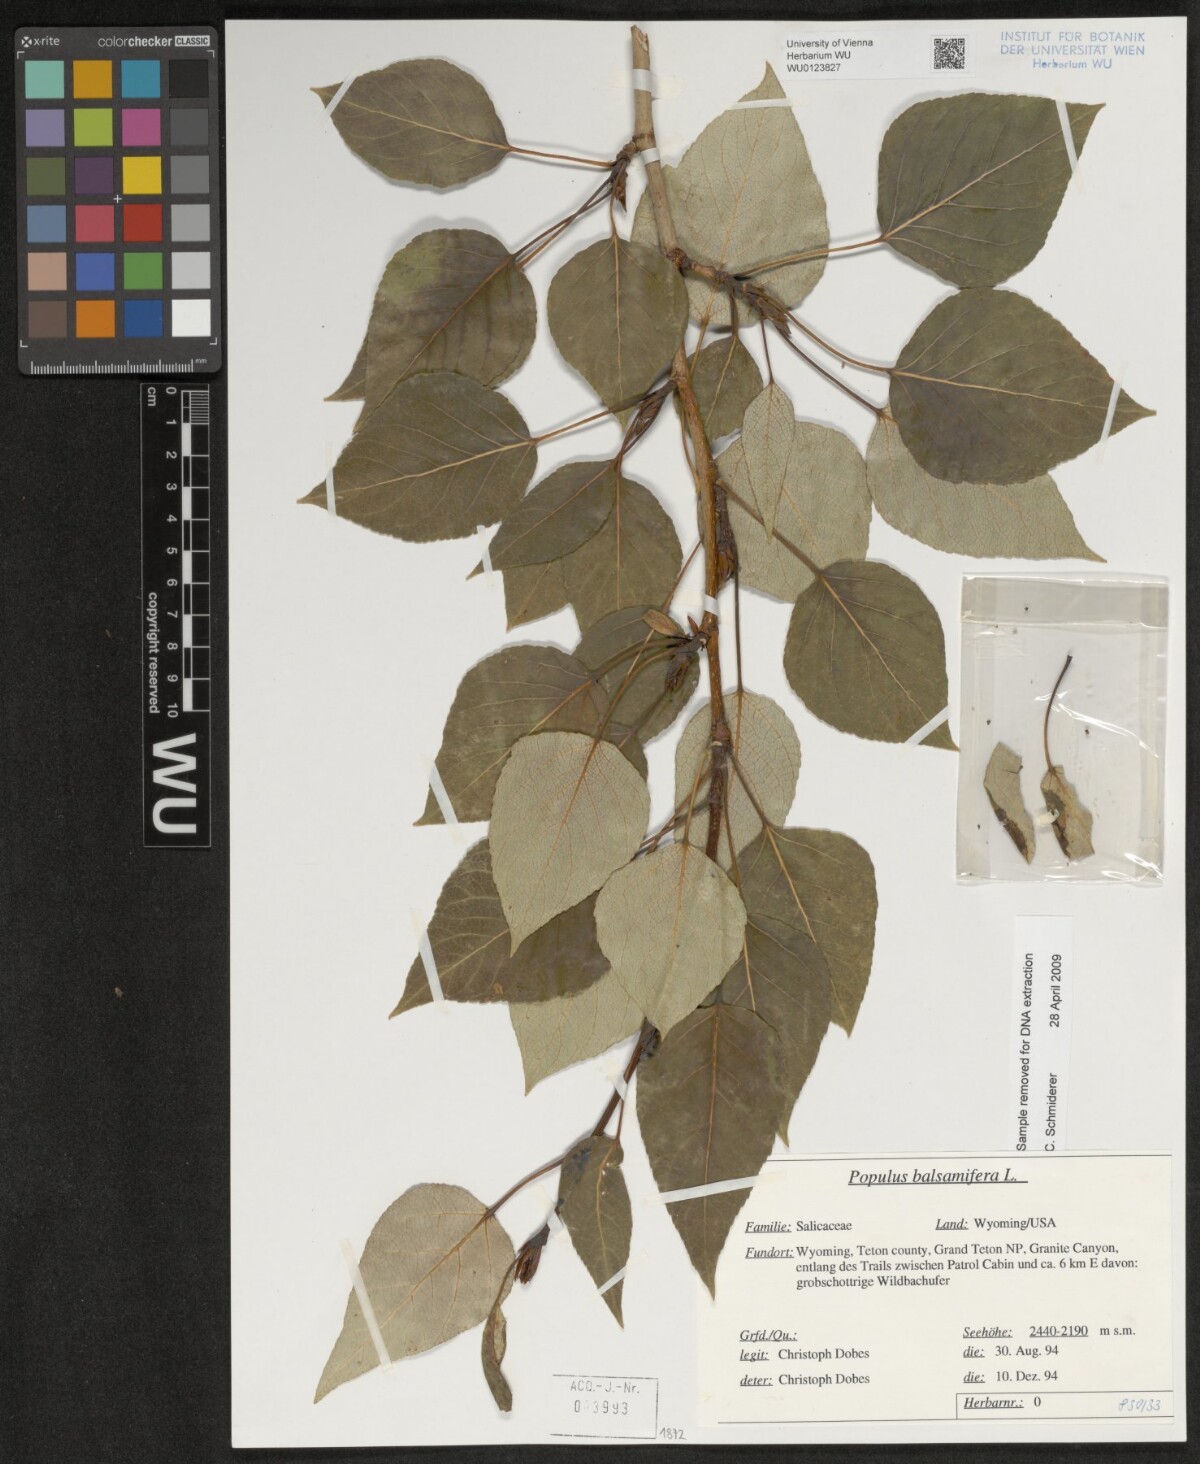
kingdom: Plantae
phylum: Tracheophyta
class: Magnoliopsida
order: Malpighiales
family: Salicaceae
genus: Populus
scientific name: Populus balsamifera
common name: Balsam poplar
